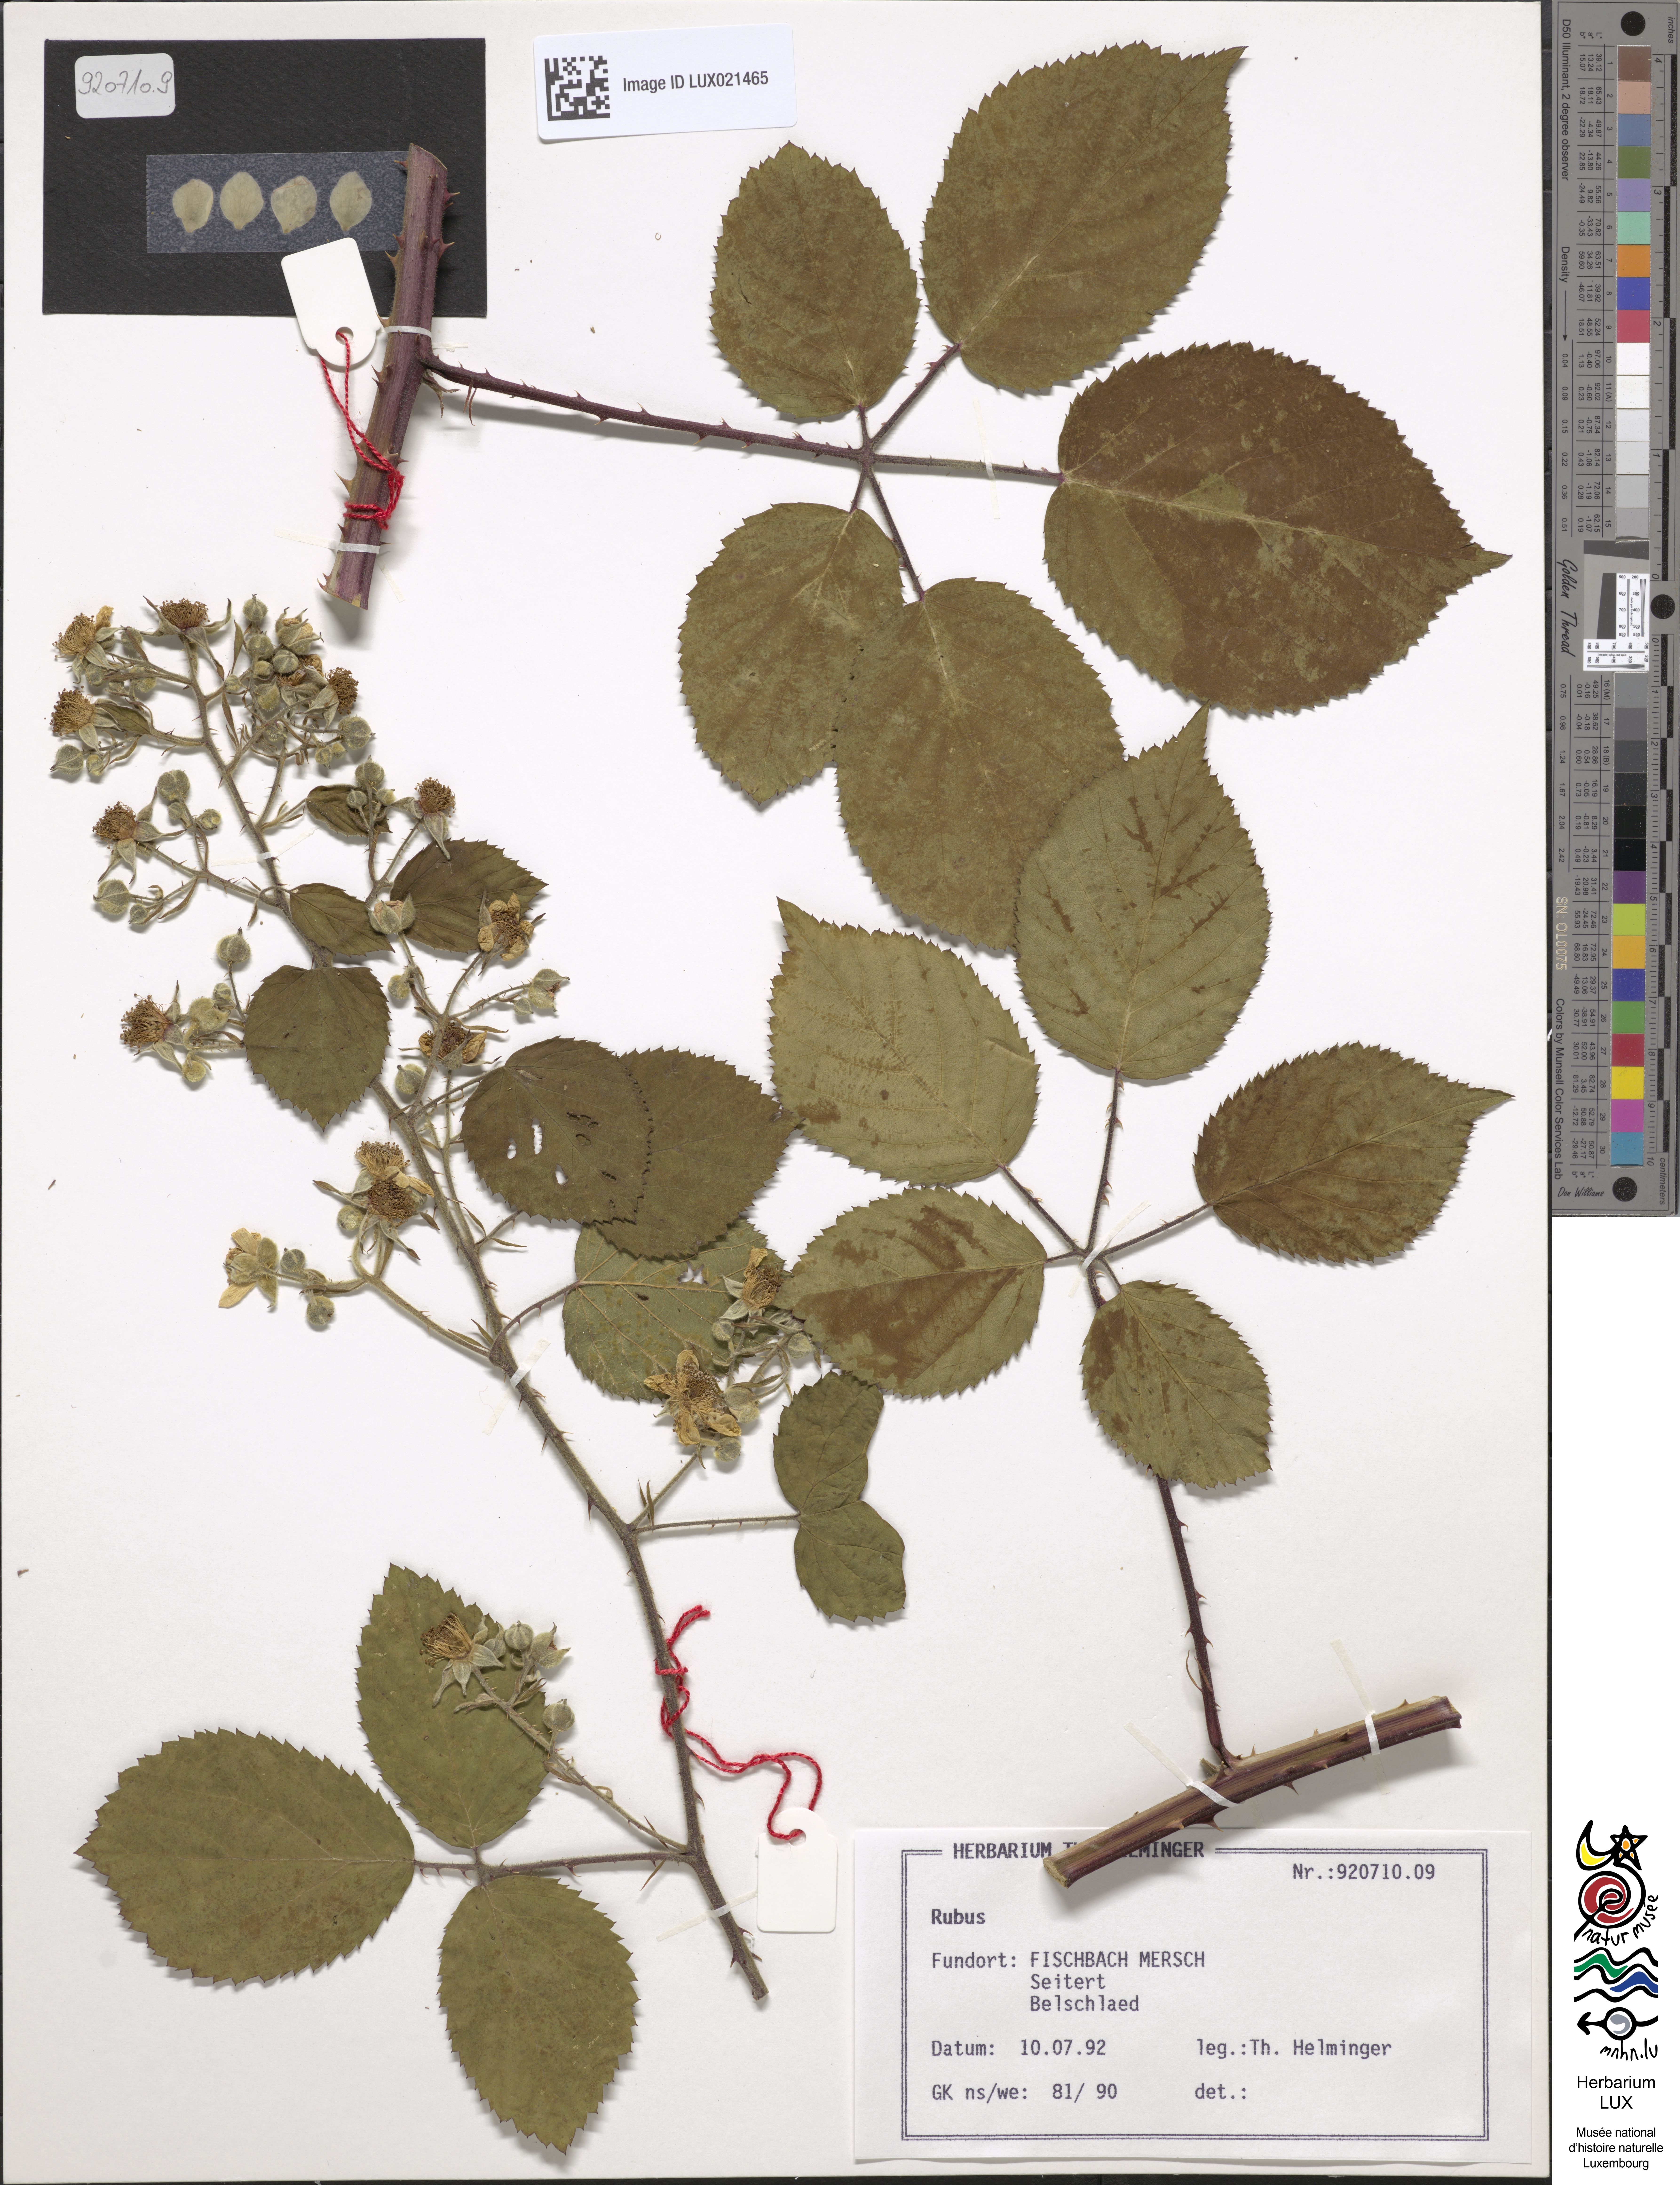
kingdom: Plantae
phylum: Tracheophyta
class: Magnoliopsida
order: Rosales
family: Rosaceae
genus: Rubus
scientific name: Rubus
